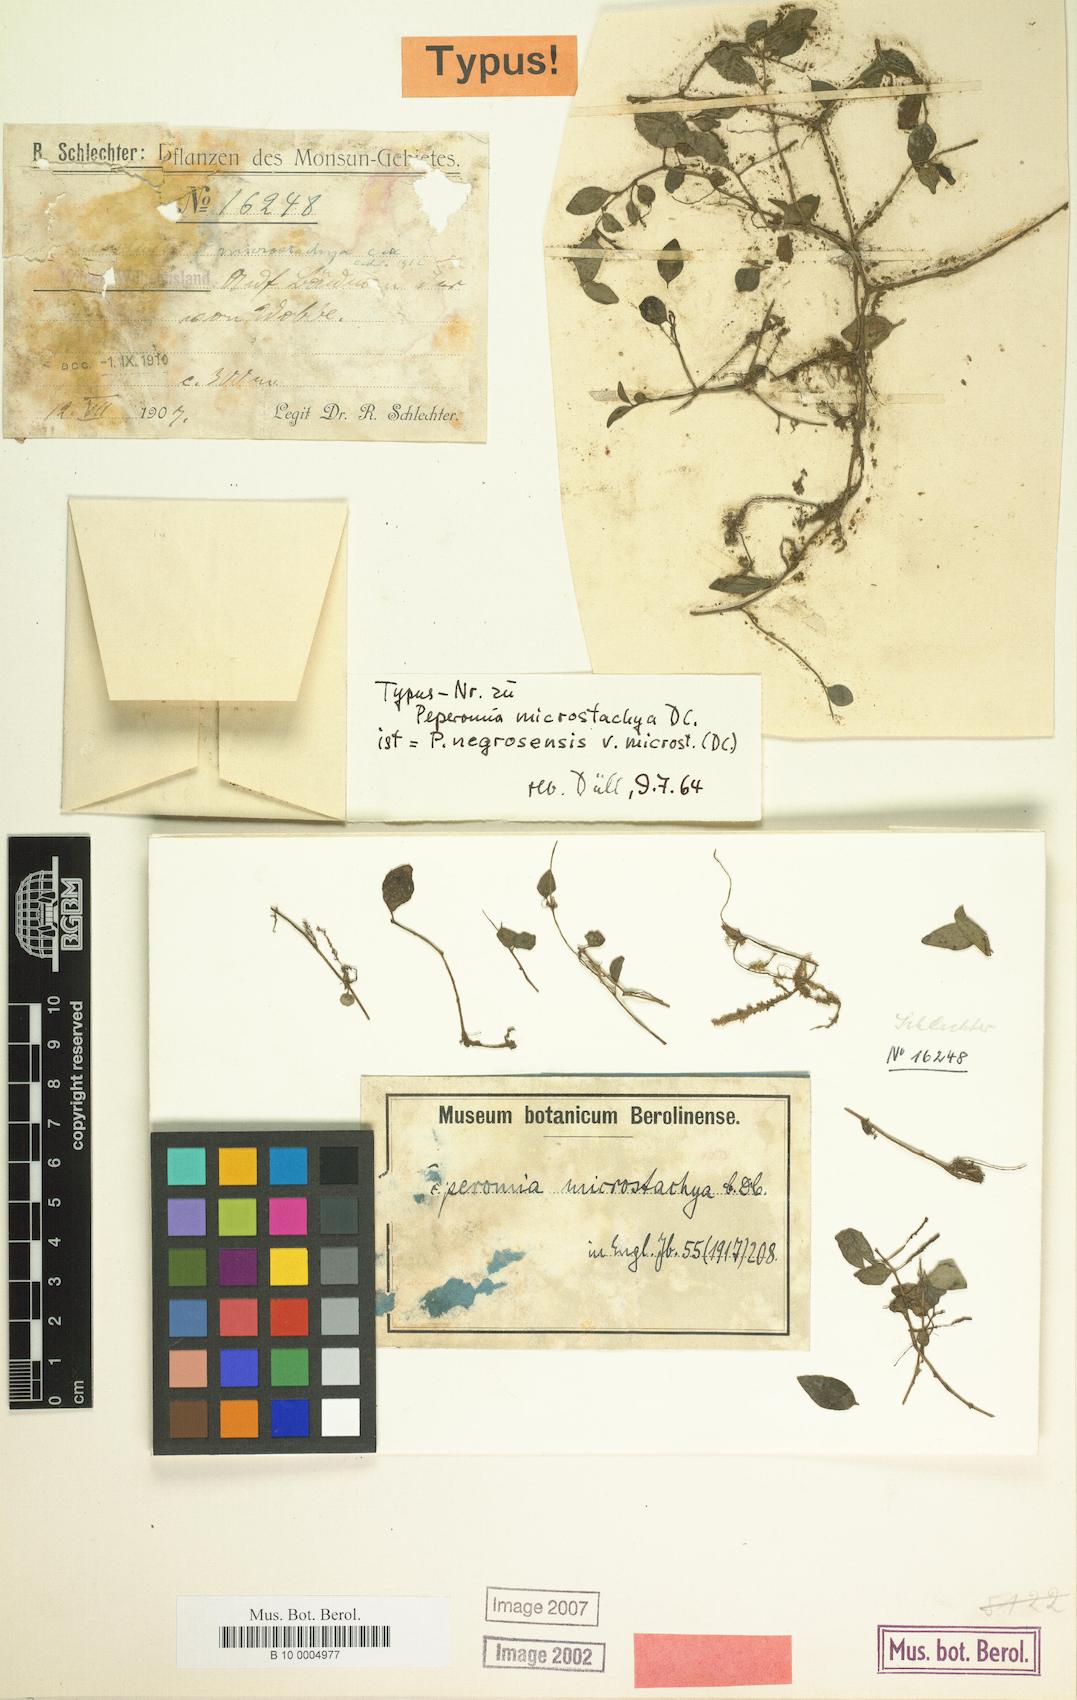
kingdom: Plantae
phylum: Tracheophyta
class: Magnoliopsida
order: Piperales
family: Piperaceae
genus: Peperomia
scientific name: Peperomia negrosensis
